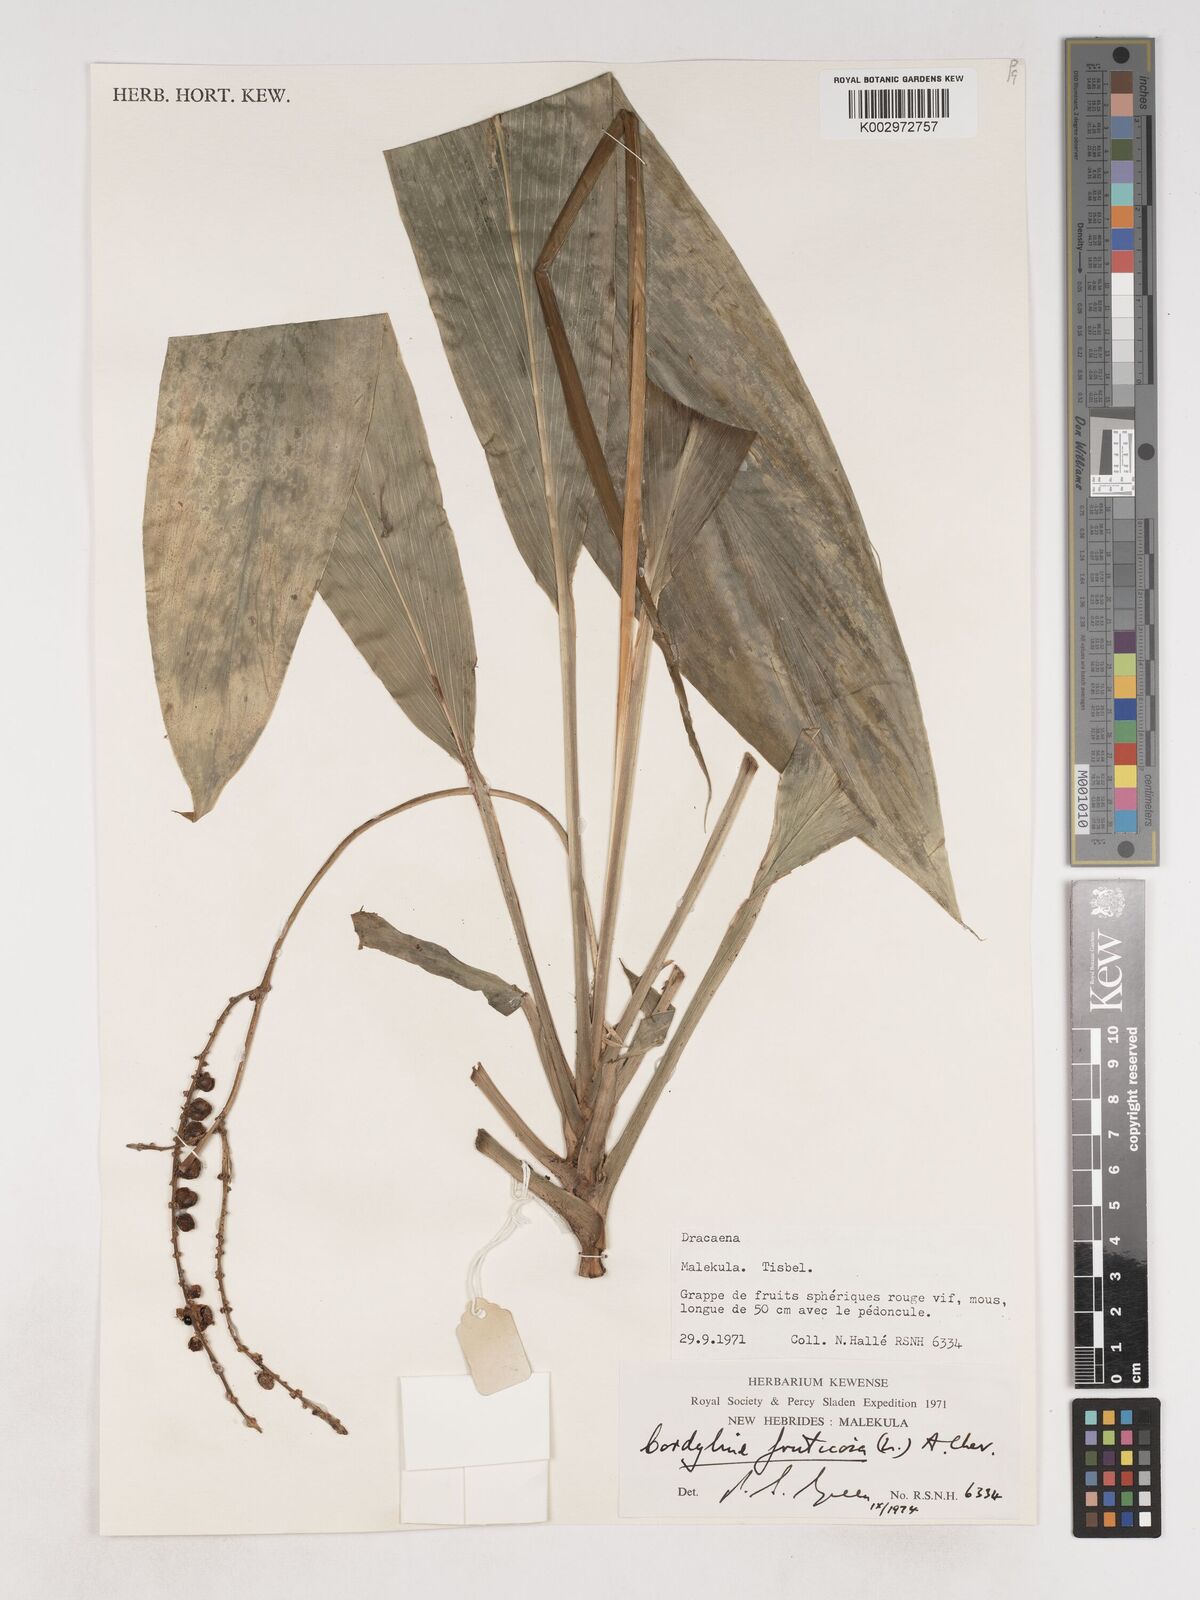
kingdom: Plantae
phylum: Tracheophyta
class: Liliopsida
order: Asparagales
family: Asparagaceae
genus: Cordyline
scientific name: Cordyline fruticosa
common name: Good-luck-plant
